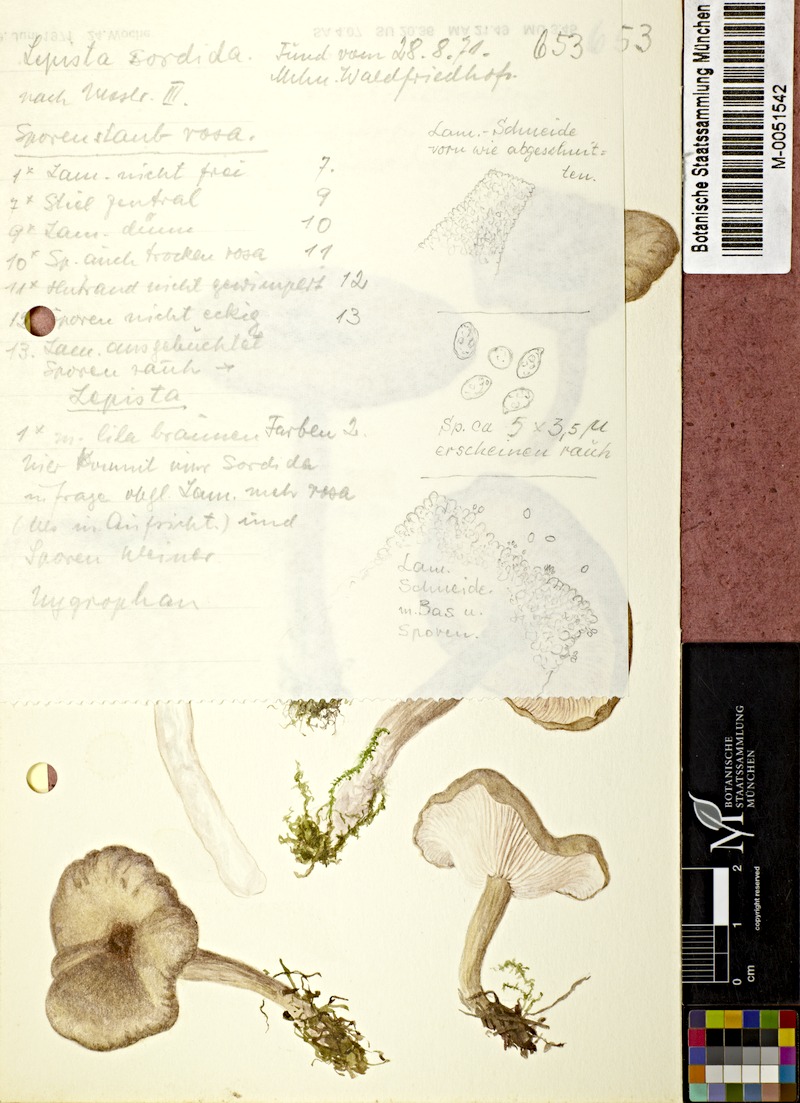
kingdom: Fungi
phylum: Basidiomycota
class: Agaricomycetes
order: Agaricales
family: Tricholomataceae
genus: Lepista
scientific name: Lepista sordida
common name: Sordid blewit
